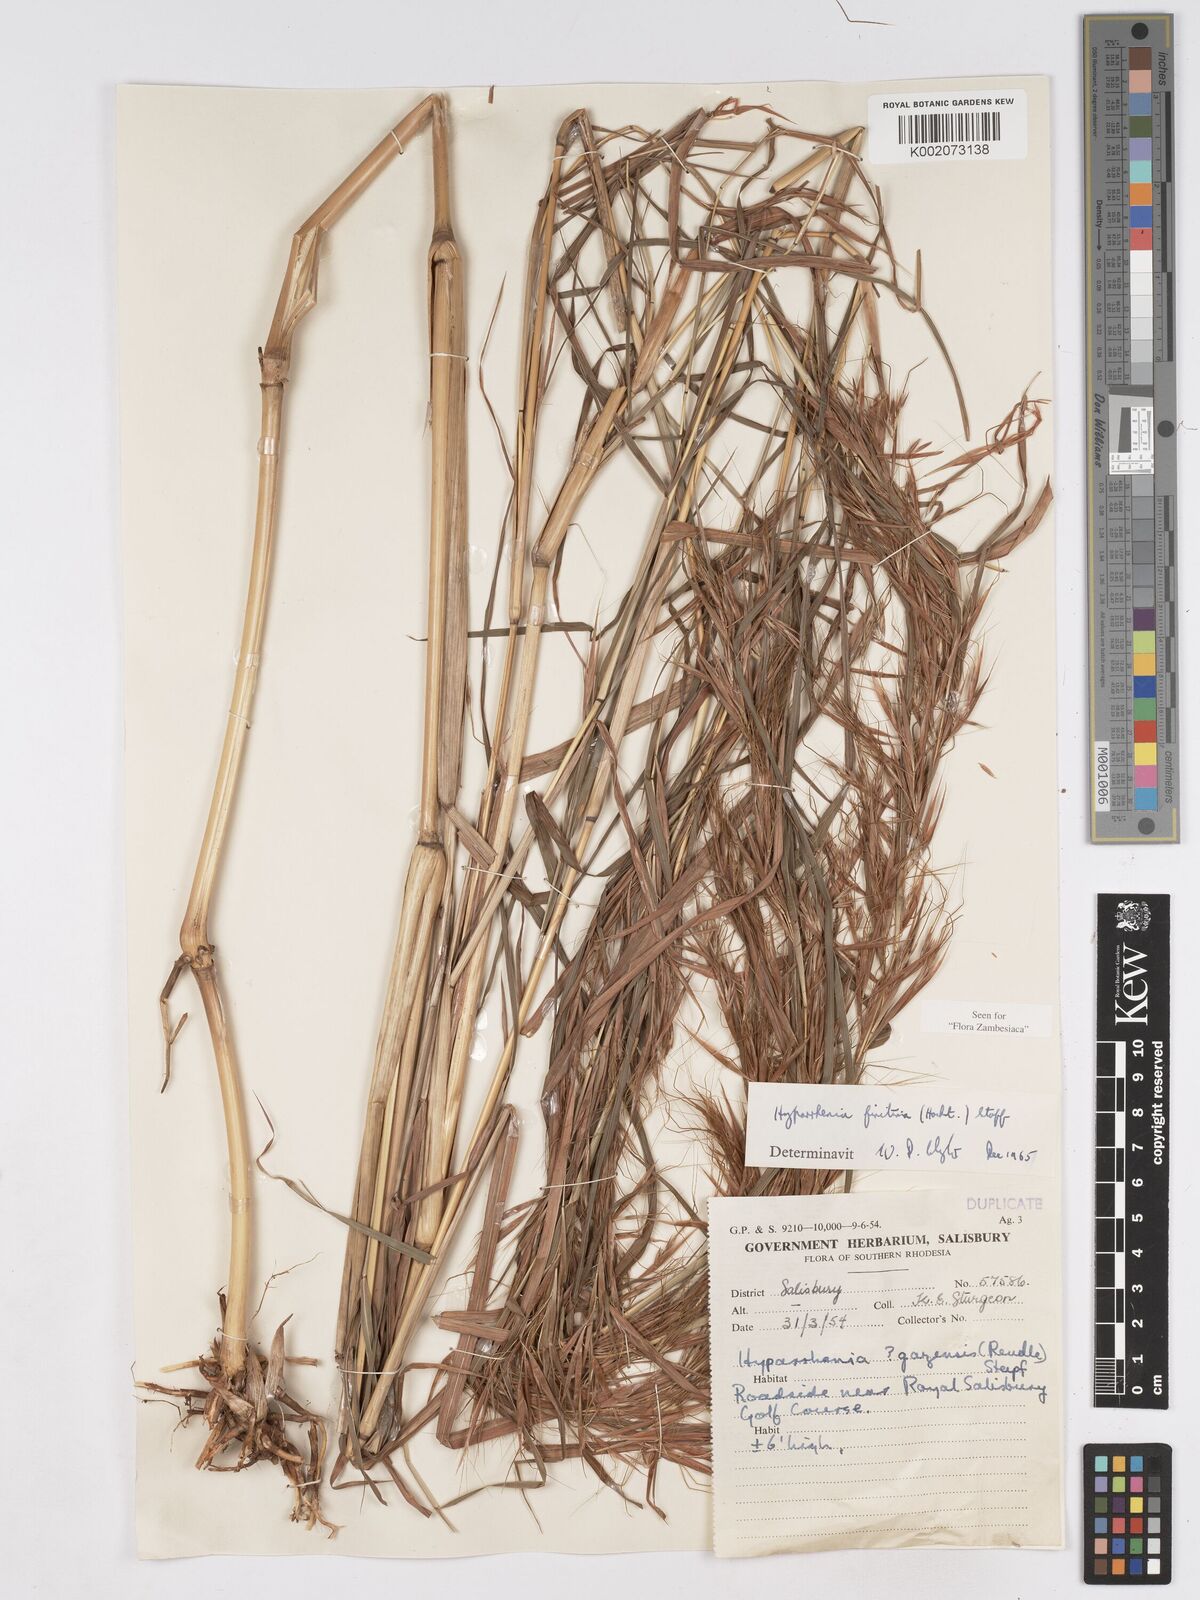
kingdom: Plantae
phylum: Tracheophyta
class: Liliopsida
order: Poales
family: Poaceae
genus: Hyparrhenia
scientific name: Hyparrhenia finitima
